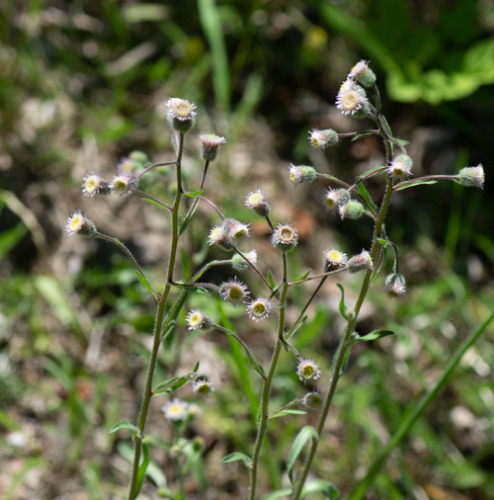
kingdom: Plantae
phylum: Tracheophyta
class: Magnoliopsida
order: Asterales
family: Asteraceae
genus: Erigeron
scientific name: Erigeron acris
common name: Bitter bakkestjerne
